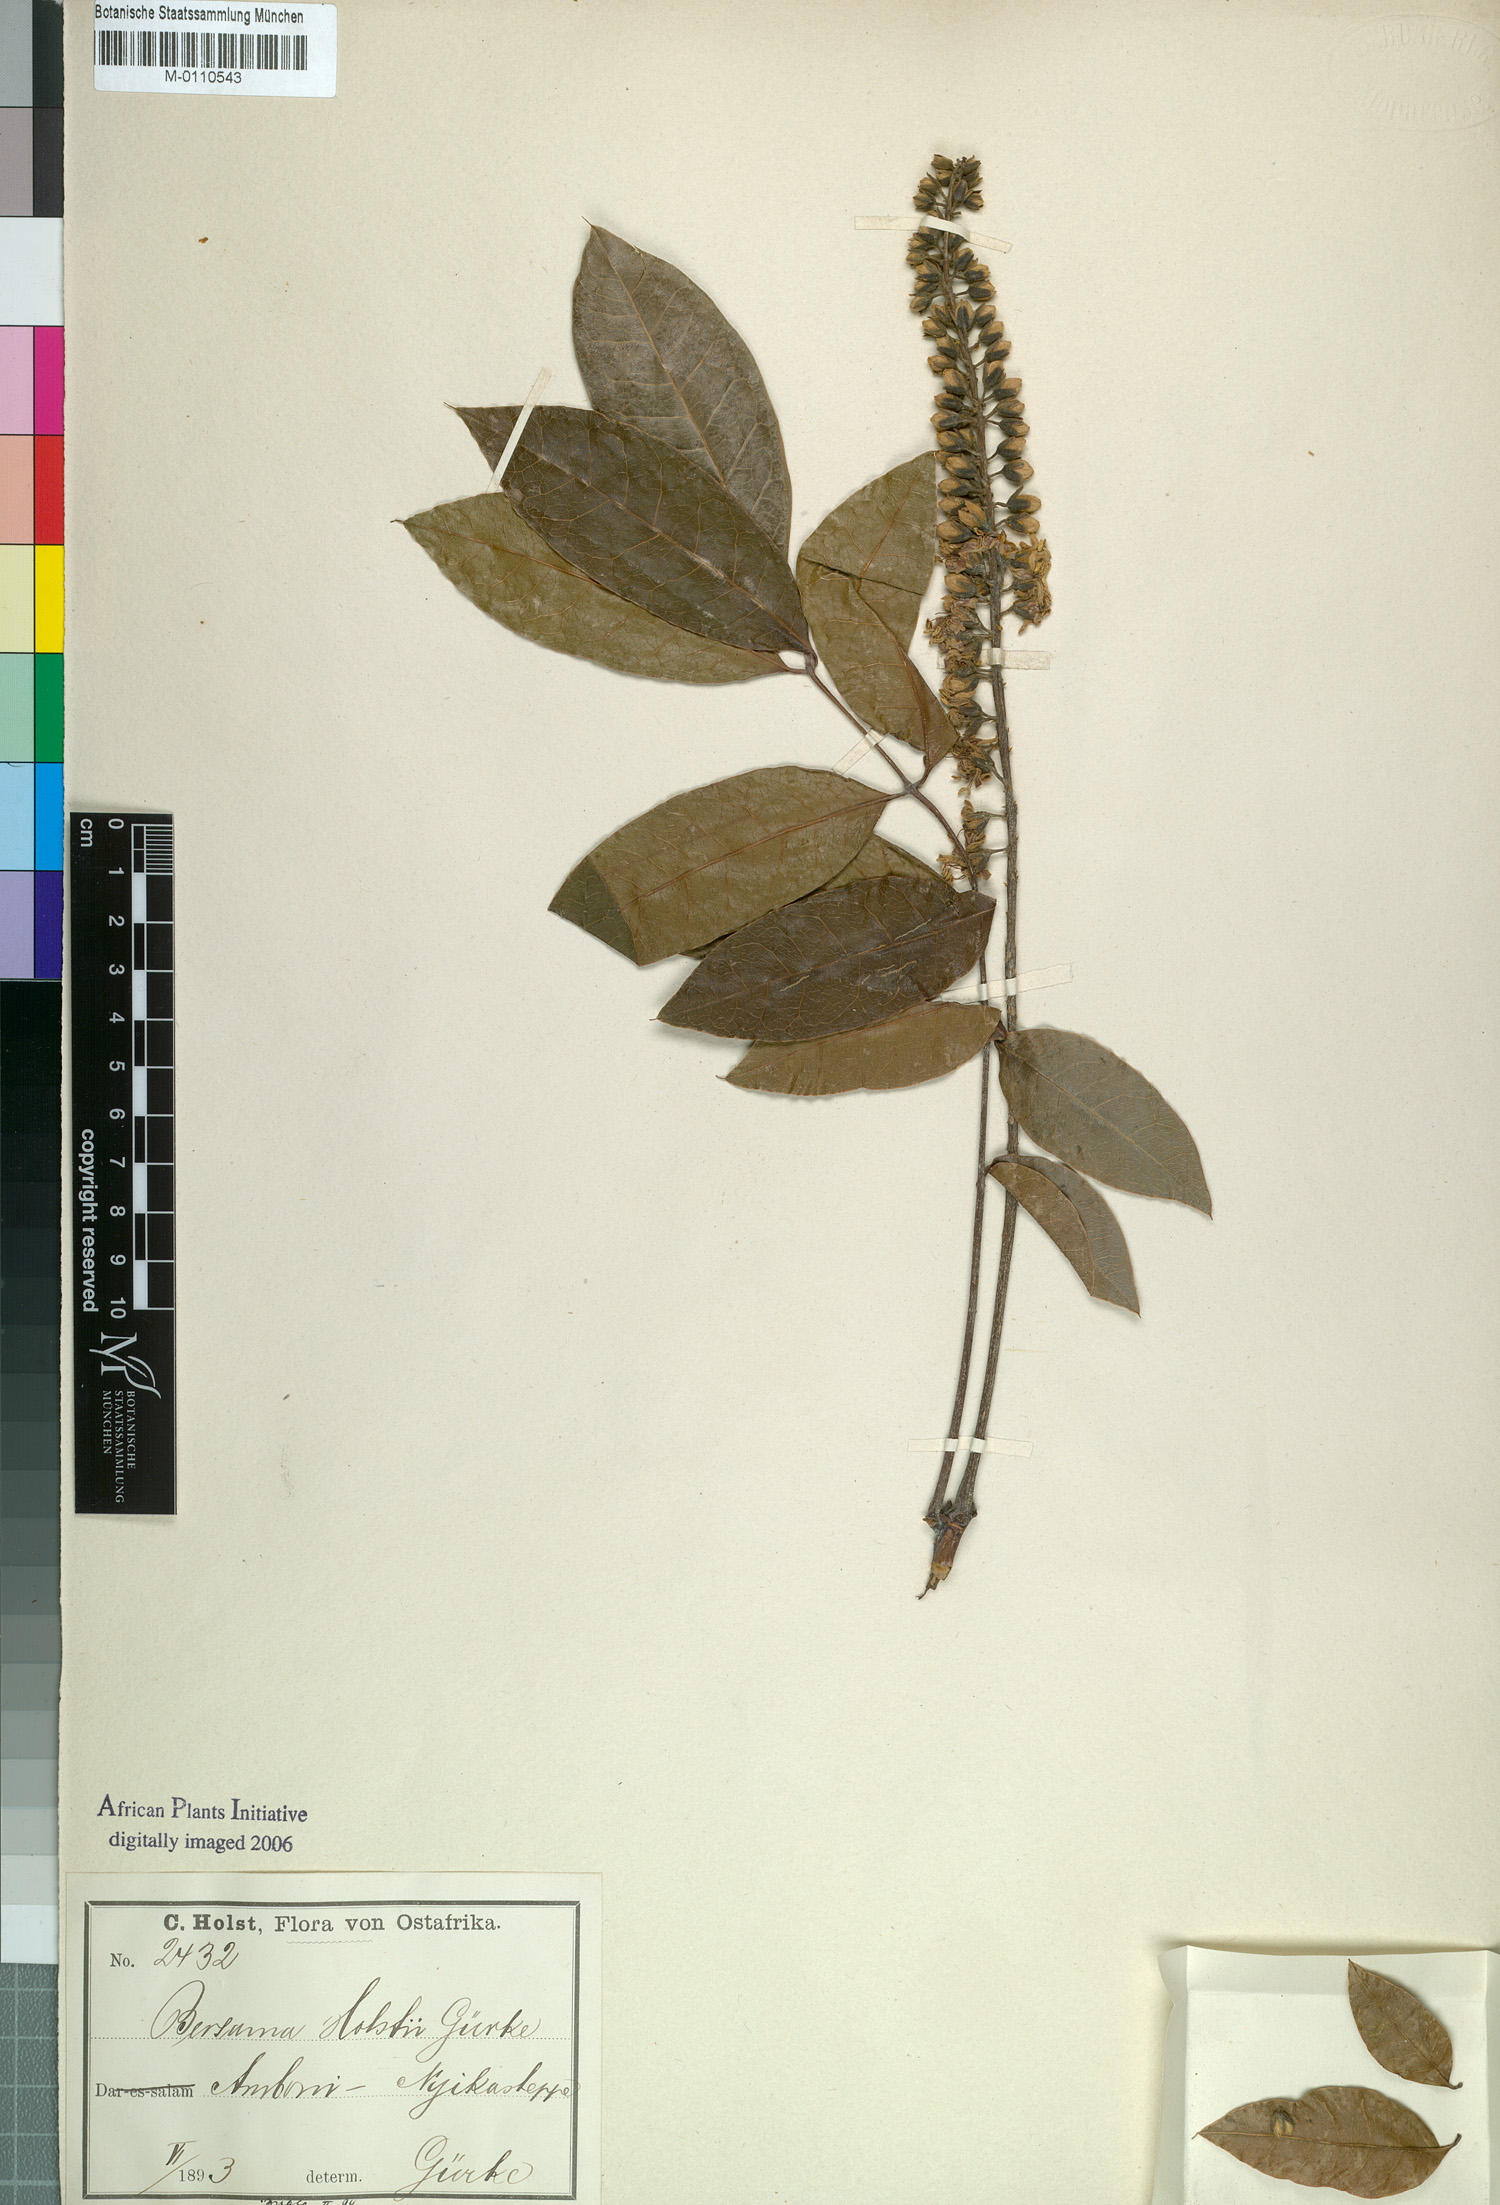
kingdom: Plantae
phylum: Tracheophyta
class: Magnoliopsida
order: Geraniales
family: Melianthaceae
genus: Bersama
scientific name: Bersama abyssinica
